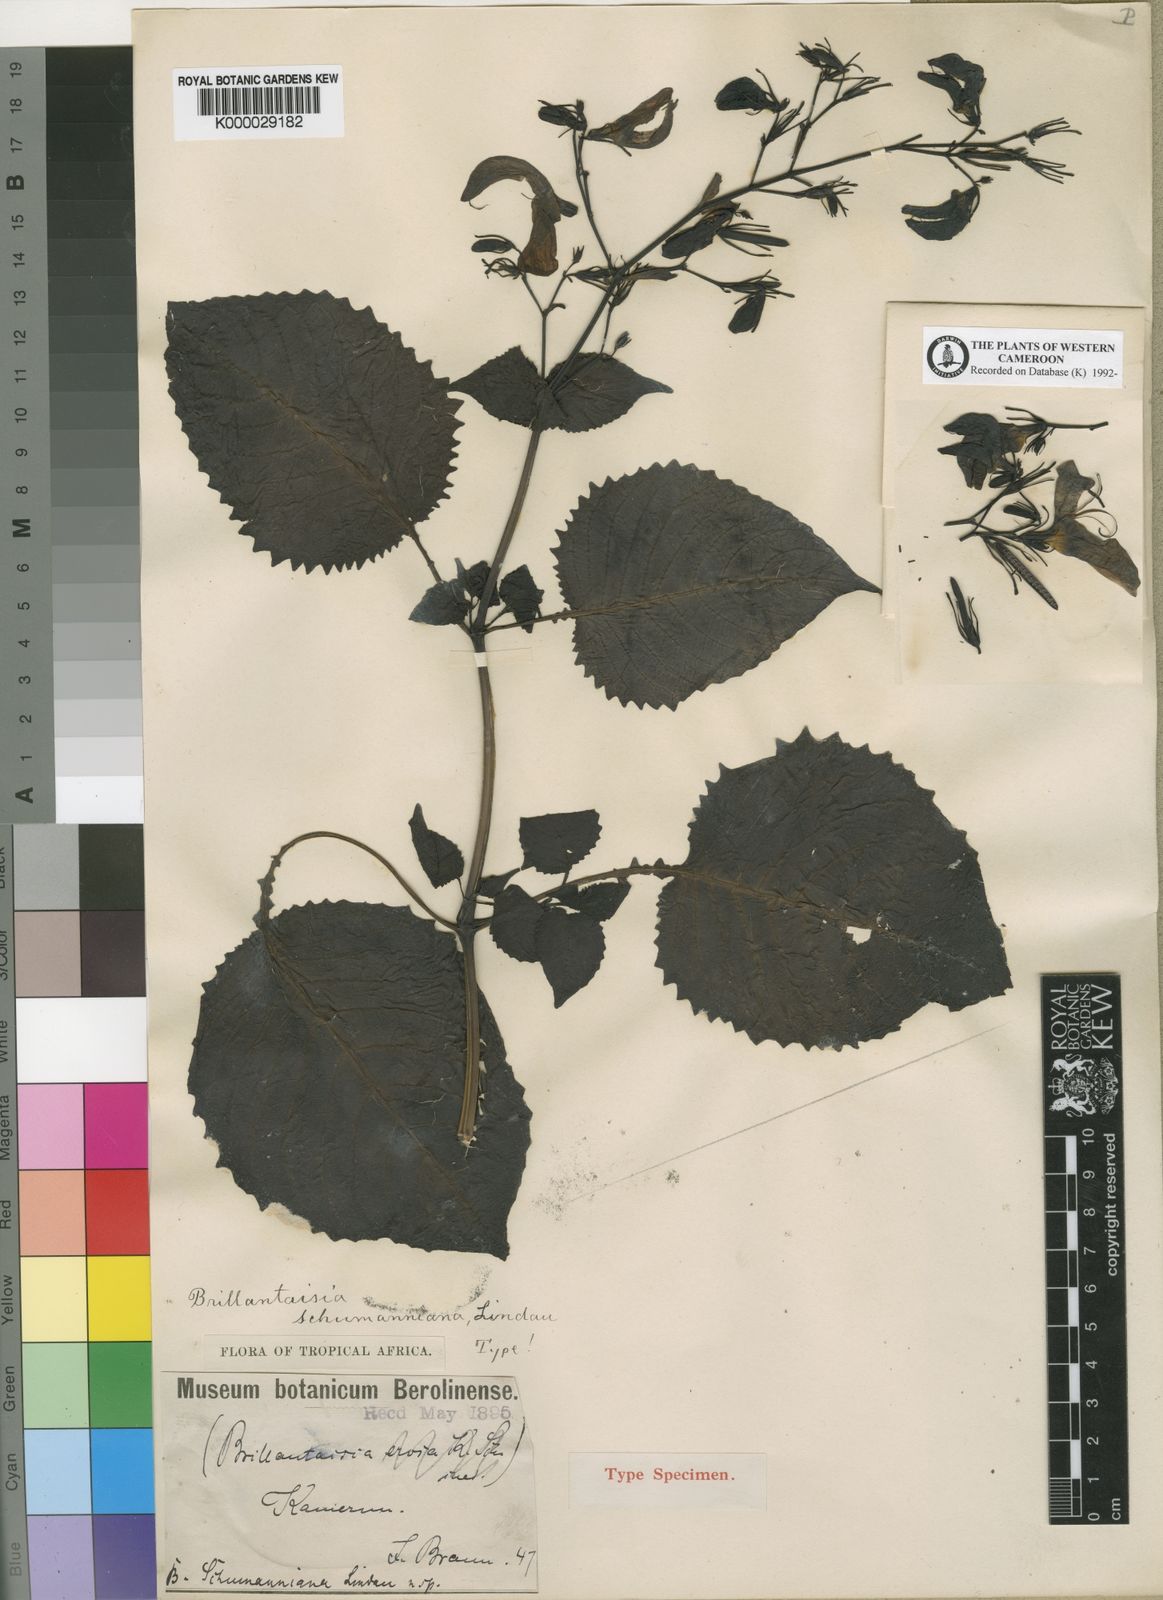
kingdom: Plantae
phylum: Tracheophyta
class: Magnoliopsida
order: Lamiales
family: Acanthaceae
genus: Brillantaisia
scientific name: Brillantaisia vogeliana
